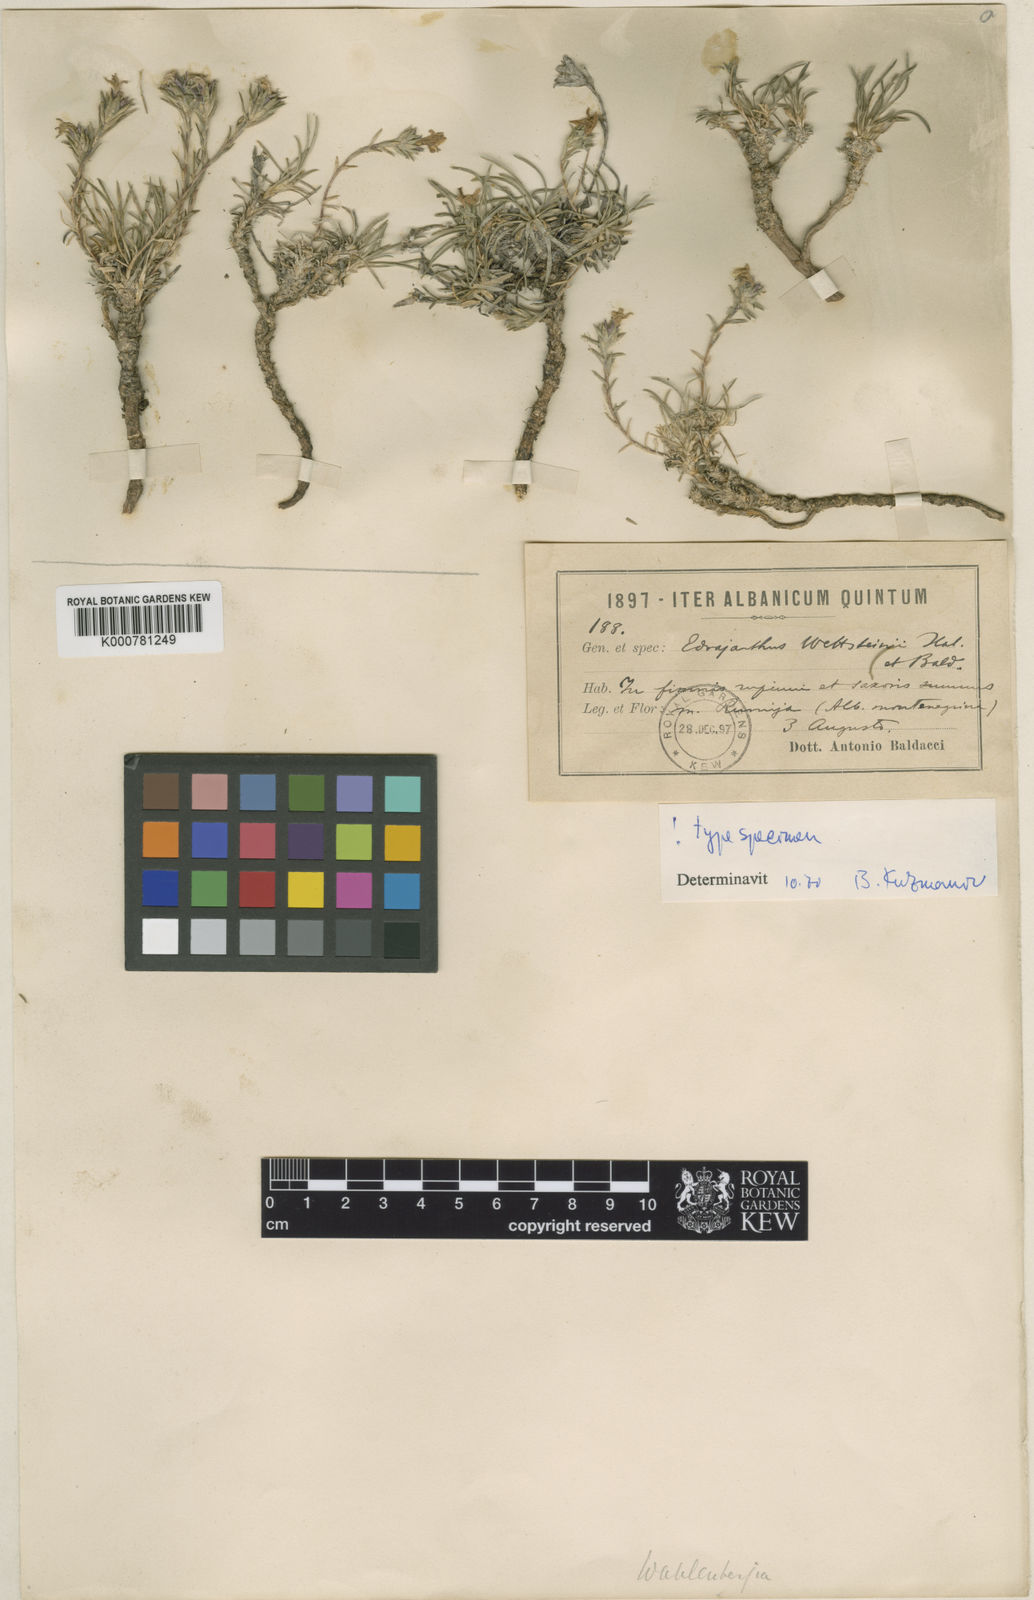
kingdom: Plantae
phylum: Tracheophyta
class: Magnoliopsida
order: Asterales
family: Campanulaceae
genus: Edraianthus
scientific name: Edraianthus
